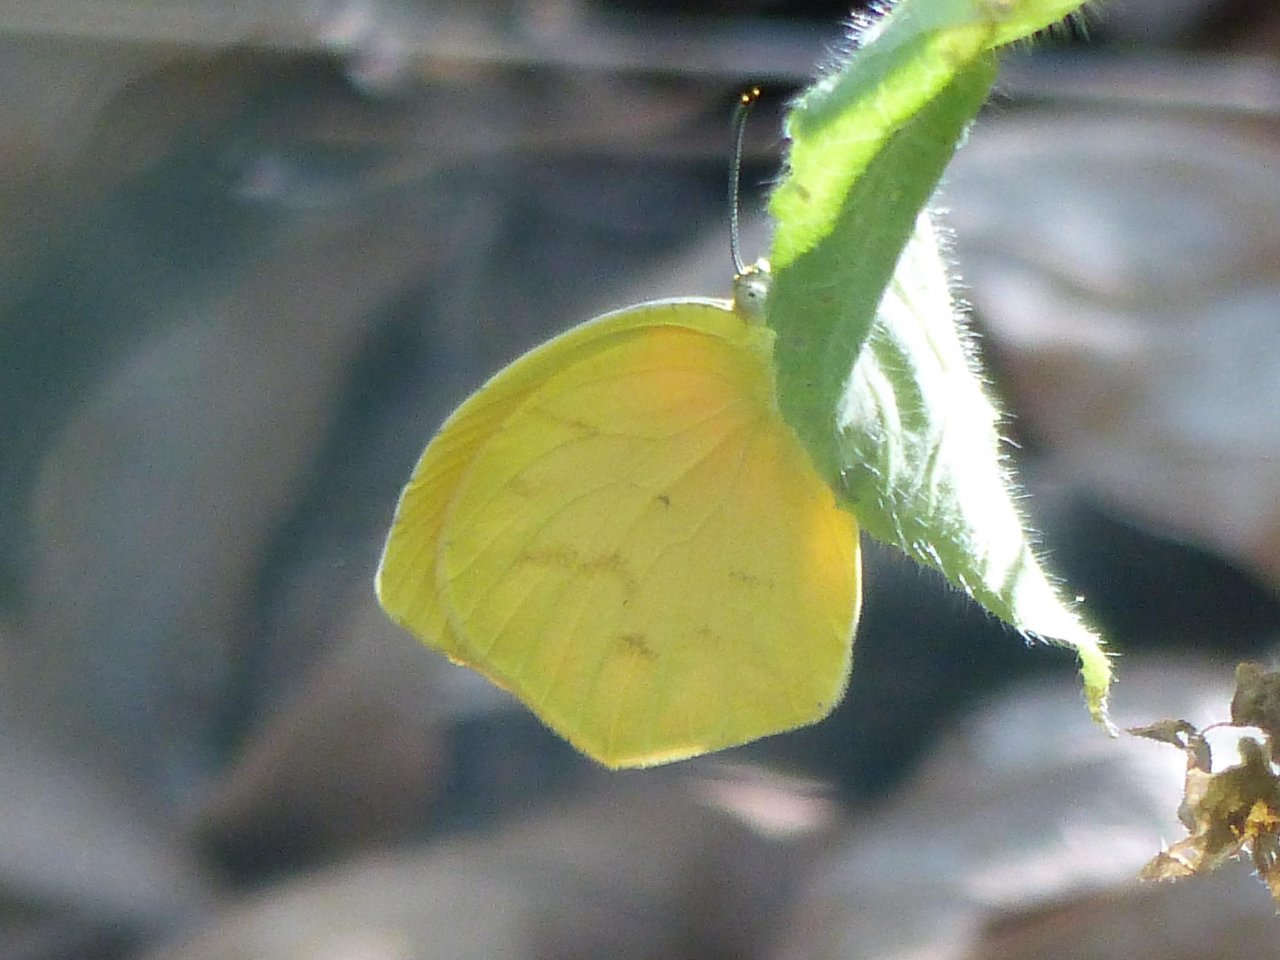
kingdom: Animalia
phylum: Arthropoda
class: Insecta
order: Lepidoptera
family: Pieridae
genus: Pyrisitia
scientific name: Pyrisitia proterpia
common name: Tailed Orange
